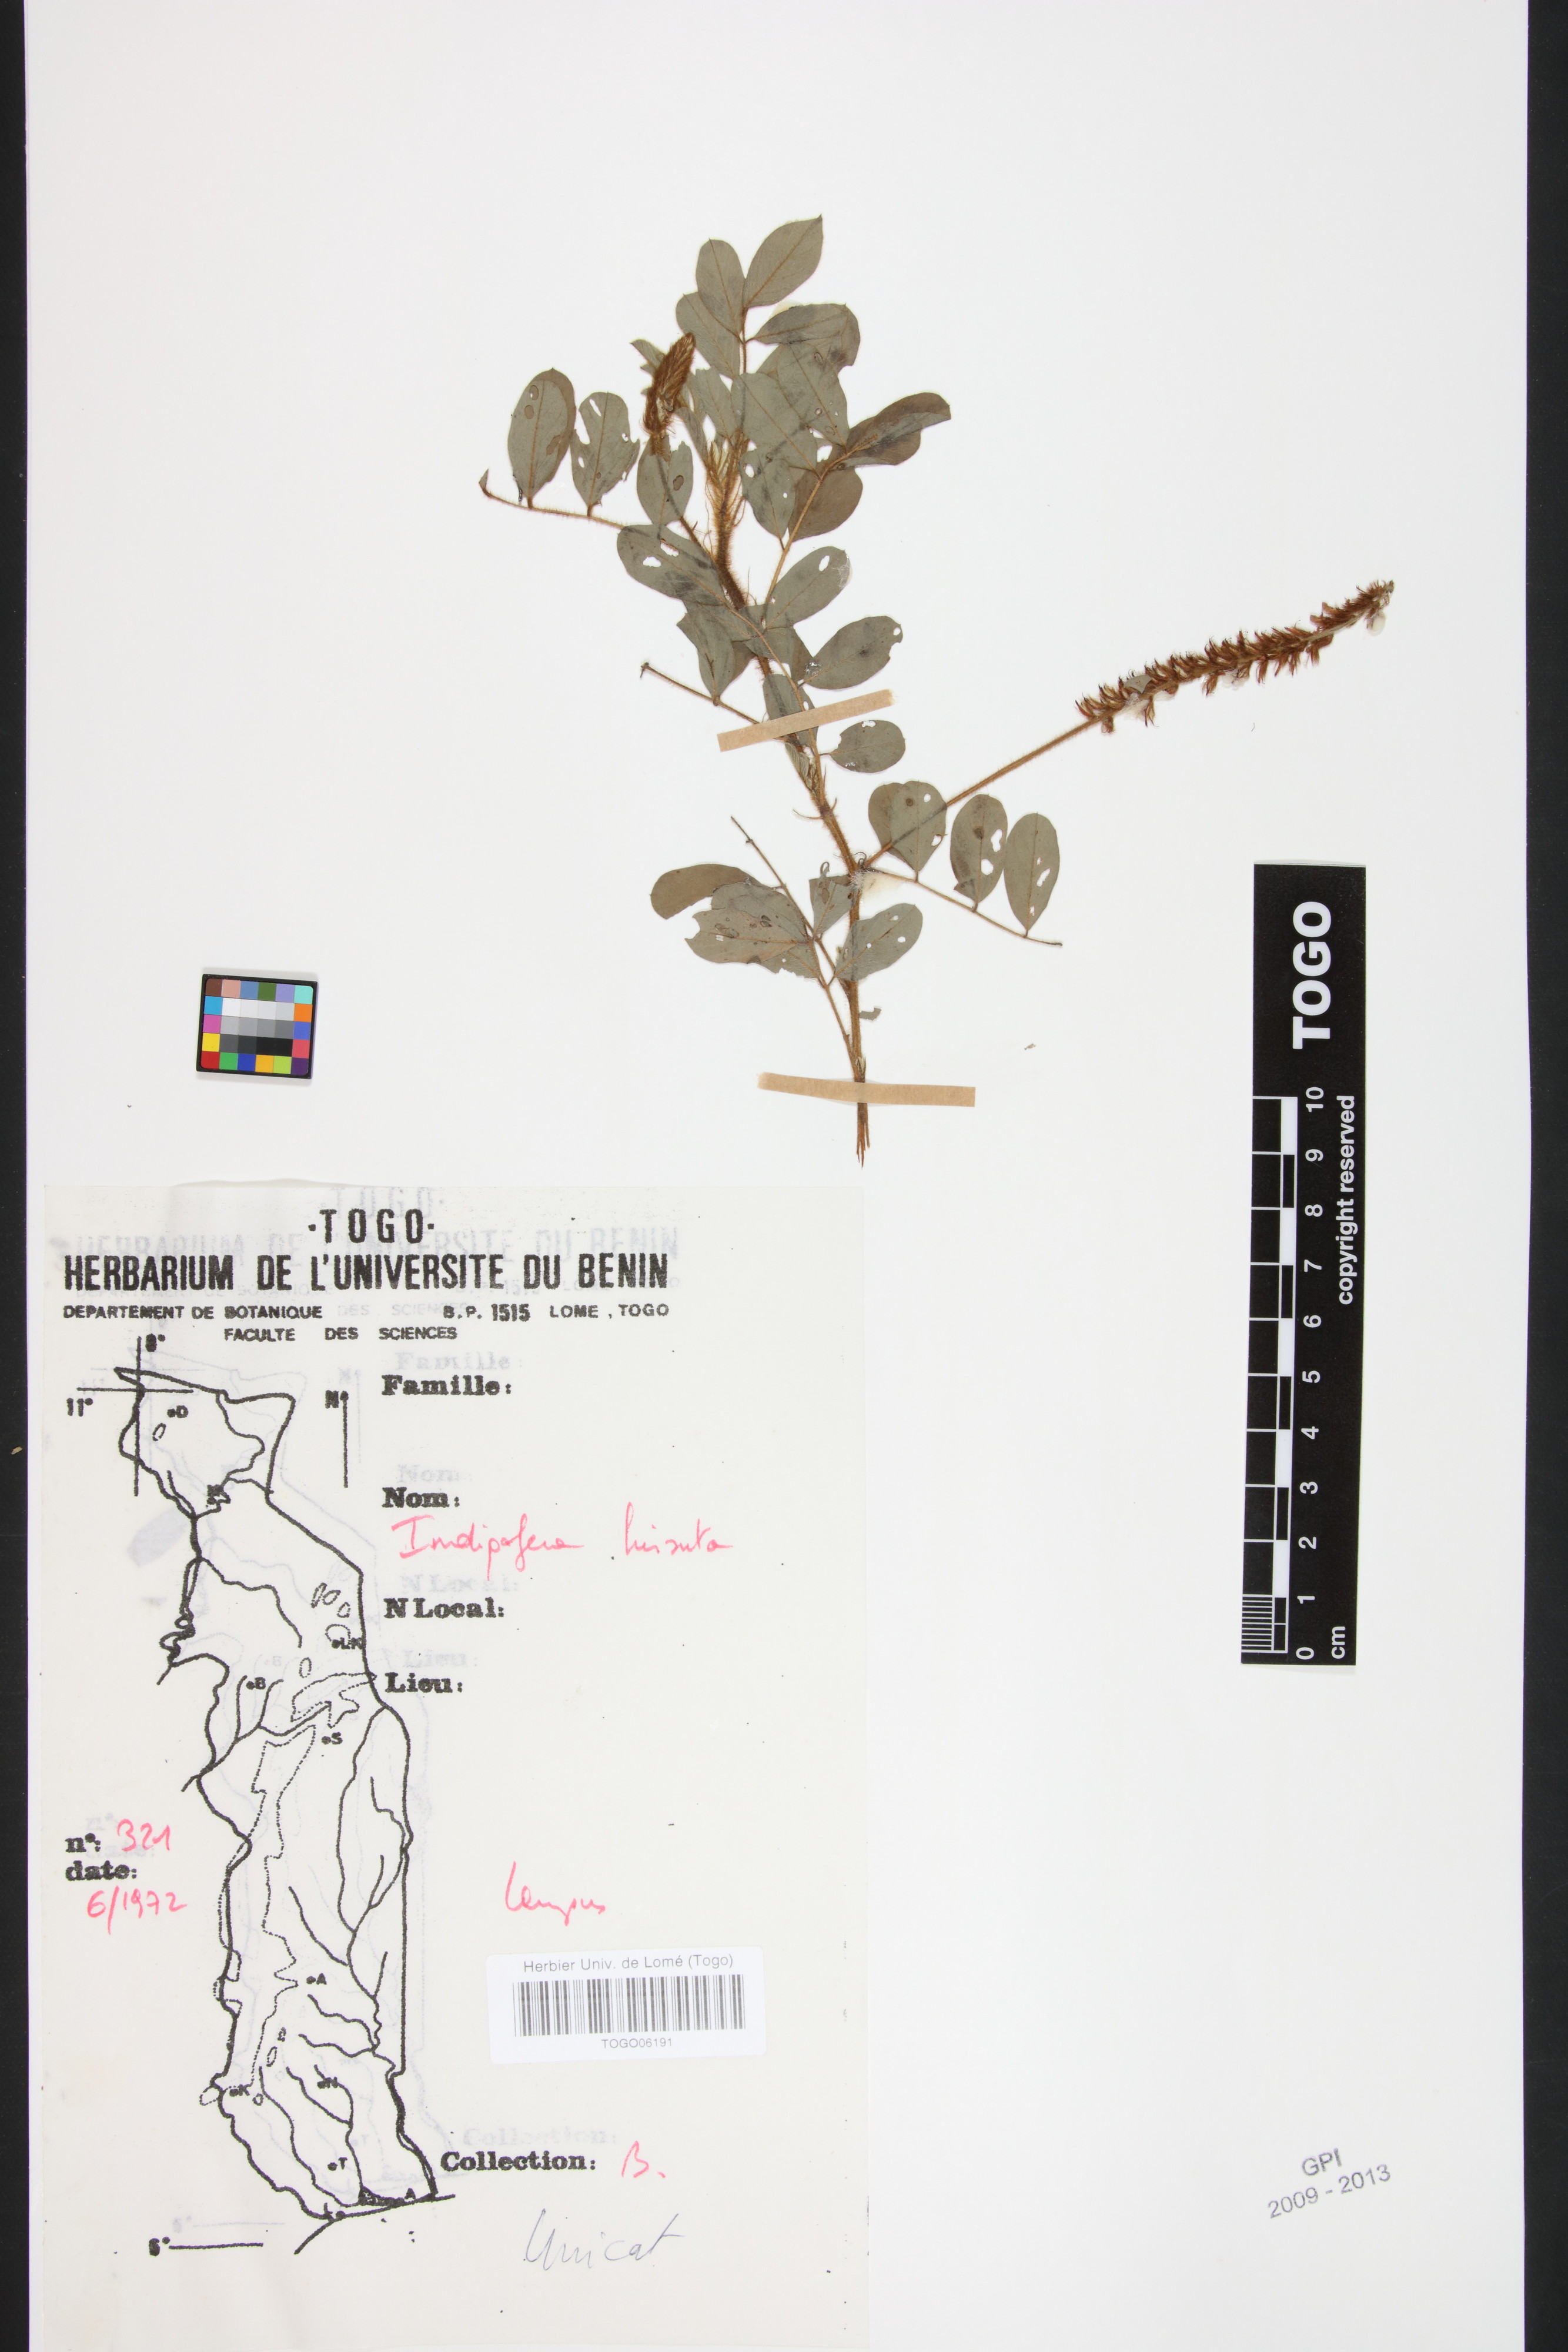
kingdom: Plantae
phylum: Tracheophyta
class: Magnoliopsida
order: Fabales
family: Fabaceae
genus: Indigofera
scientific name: Indigofera hirsuta
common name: Hairy indigo
